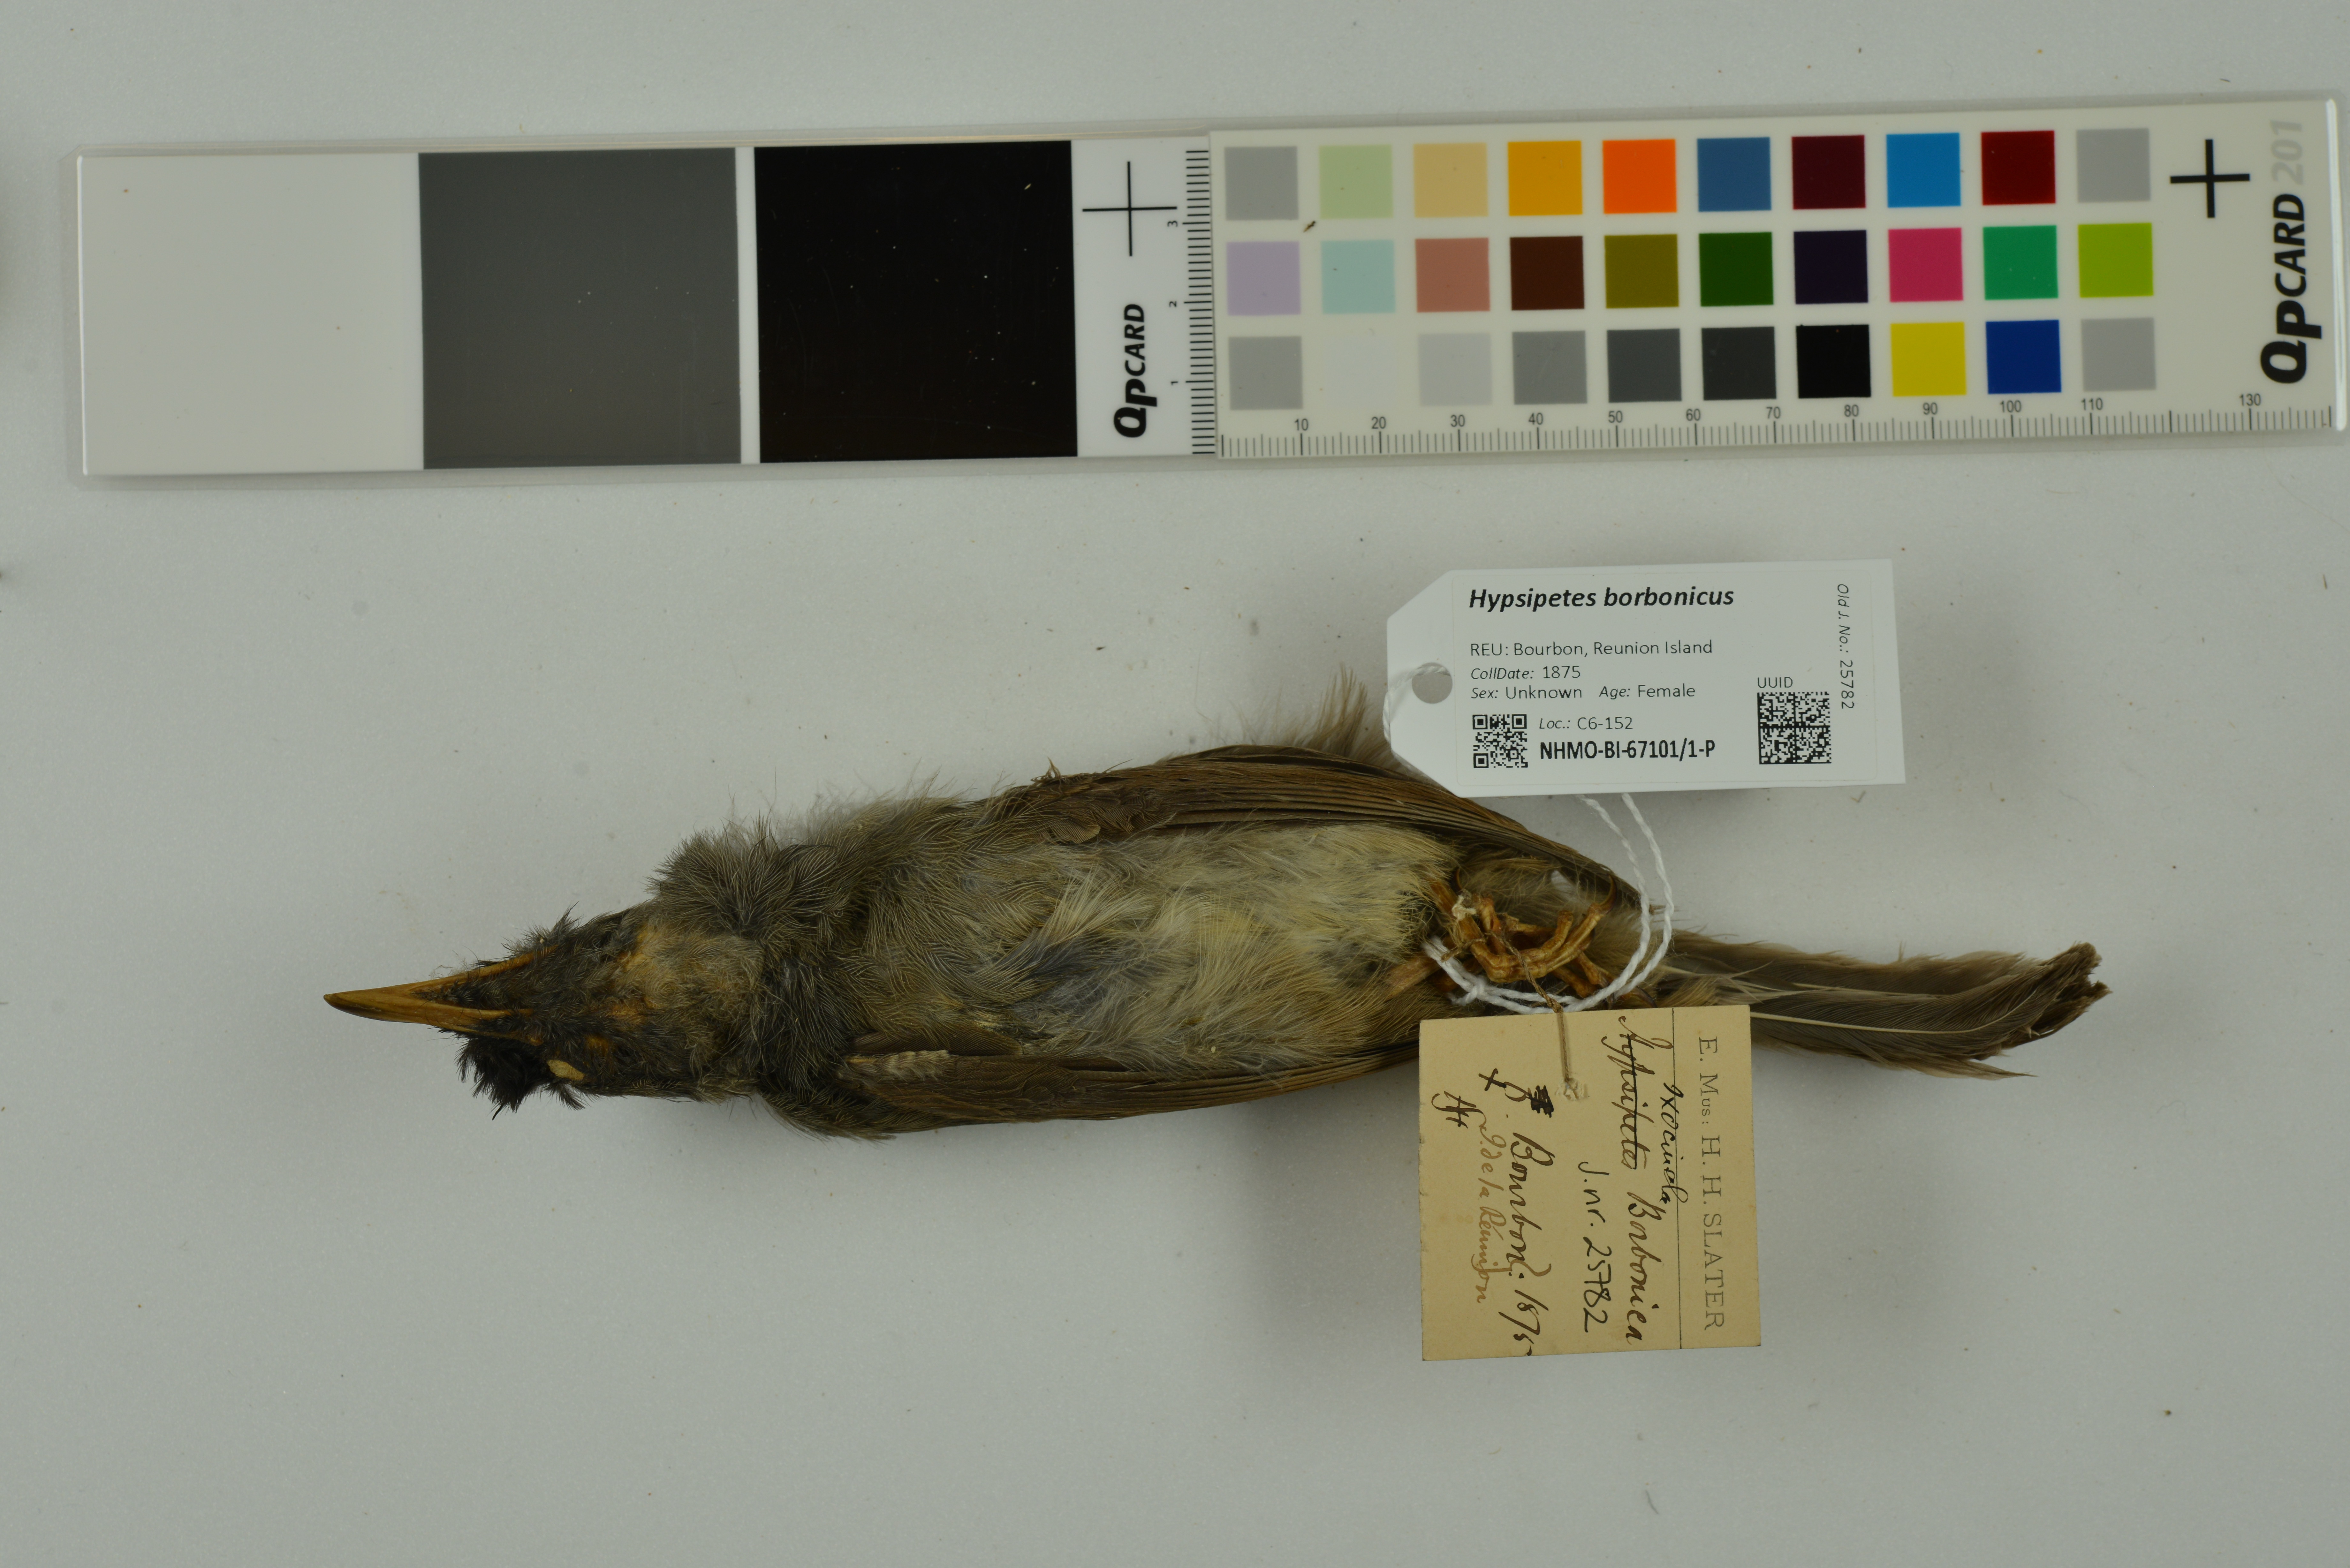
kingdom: Animalia
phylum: Chordata
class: Aves
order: Passeriformes
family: Pycnonotidae
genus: Hypsipetes
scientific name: Hypsipetes borbonicus
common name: Reunion bulbul
